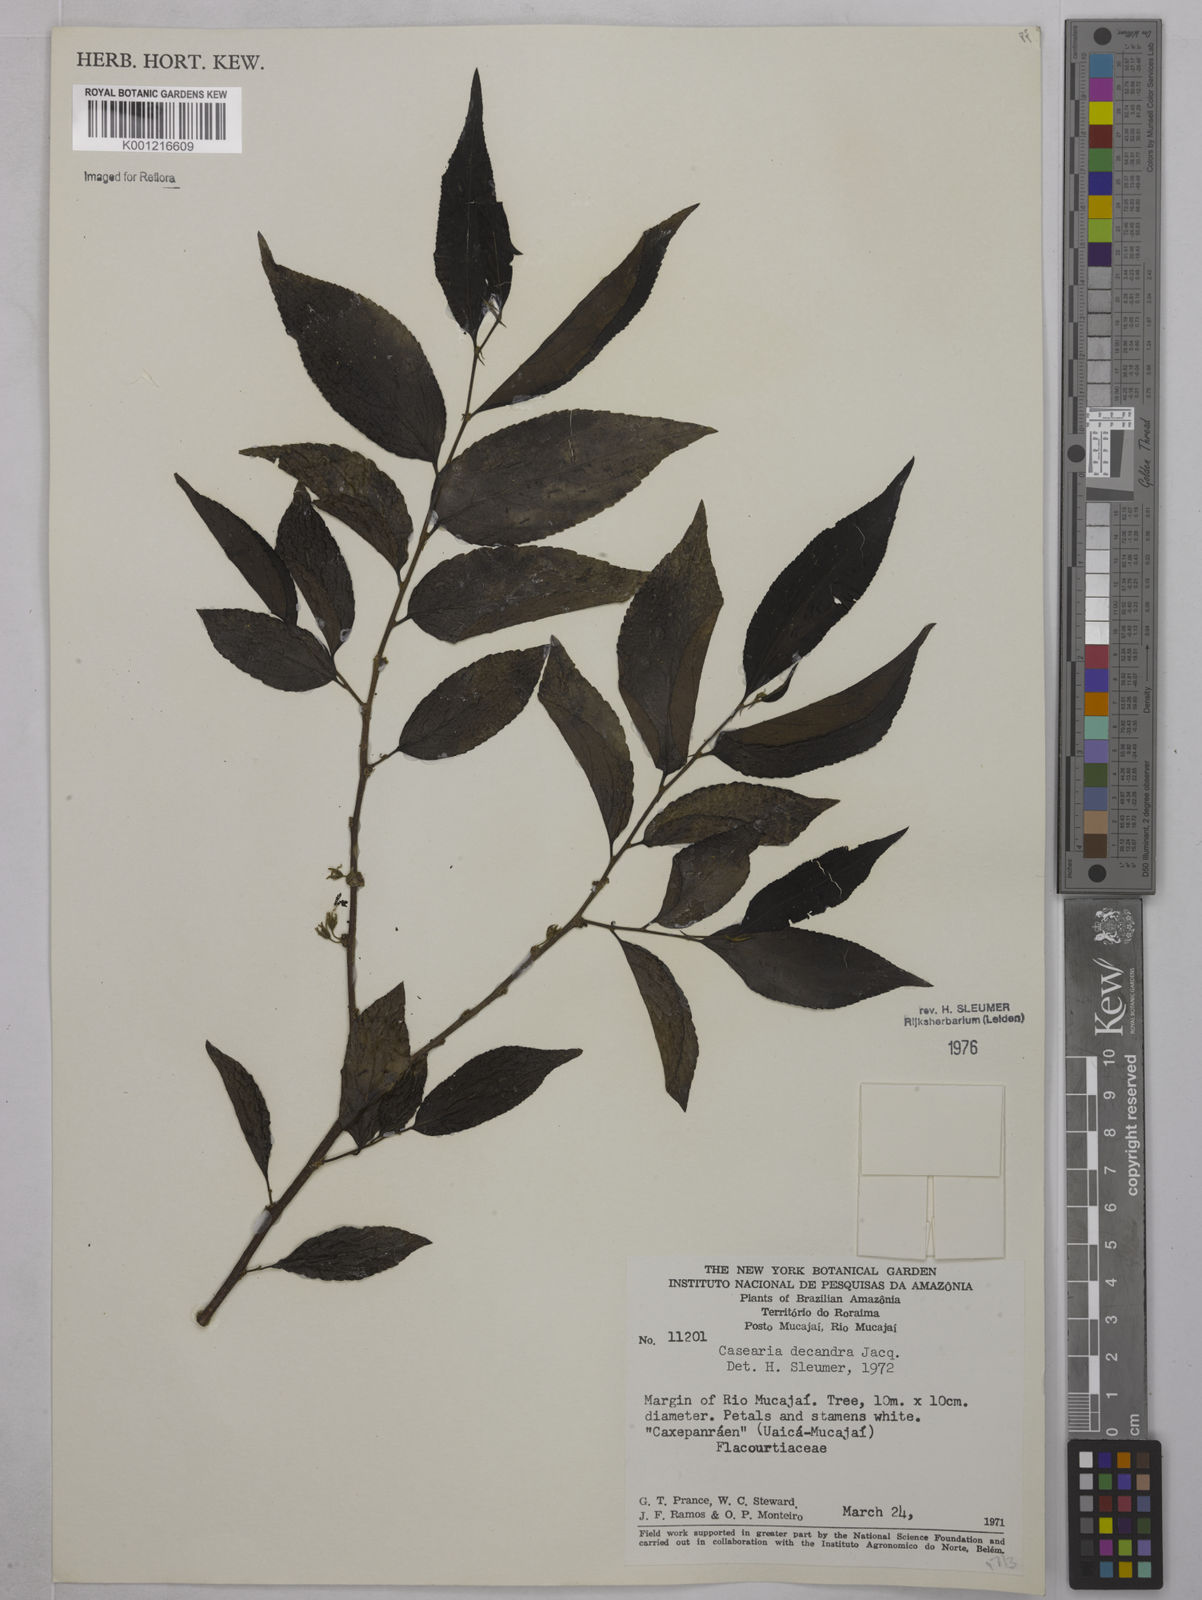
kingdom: Plantae
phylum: Tracheophyta
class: Magnoliopsida
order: Malpighiales
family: Salicaceae
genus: Casearia
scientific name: Casearia decandra
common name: Crack open
